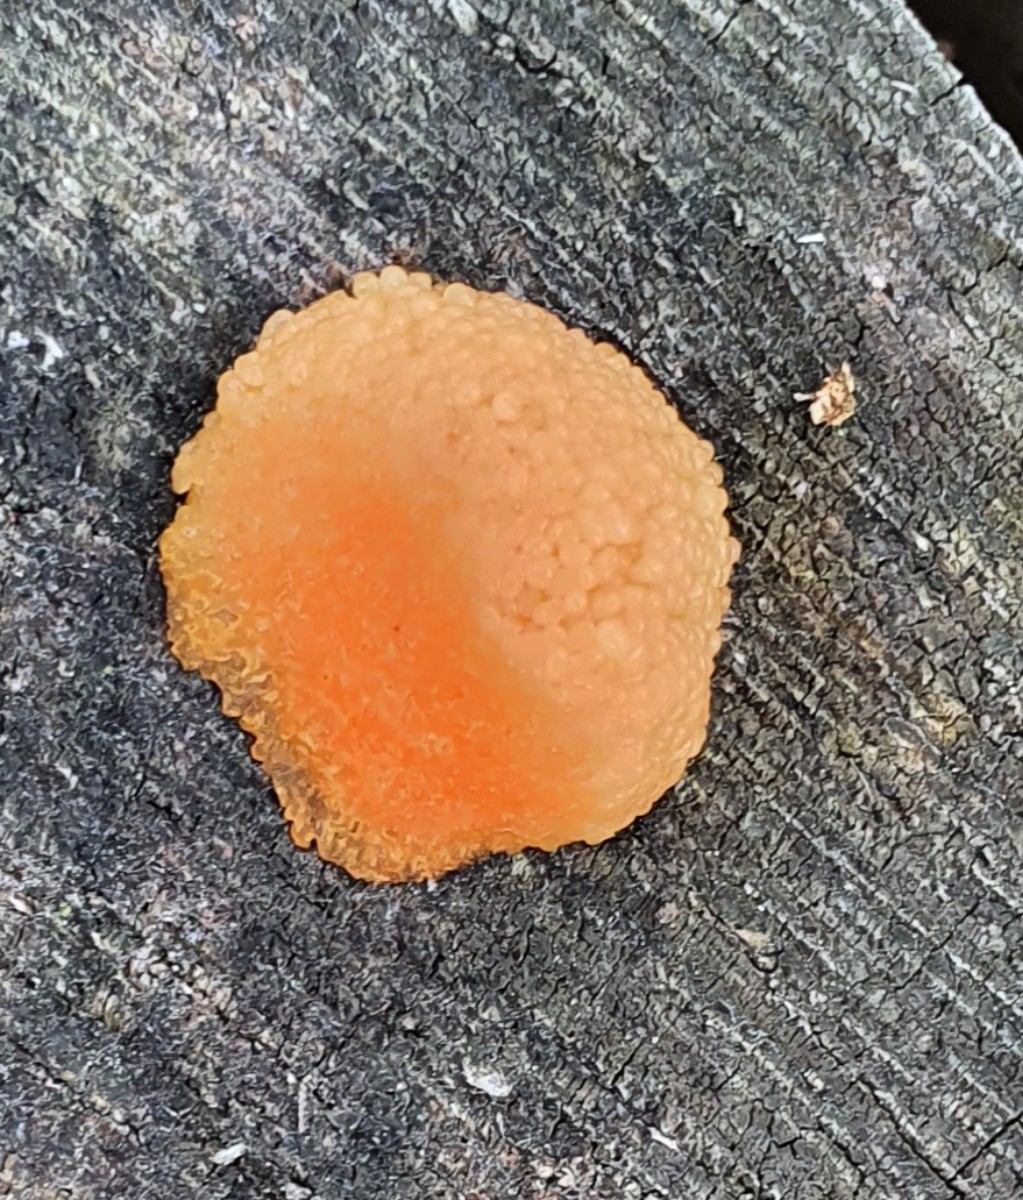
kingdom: Protozoa
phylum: Mycetozoa
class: Myxomycetes
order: Cribrariales
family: Tubiferaceae
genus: Tubifera
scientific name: Tubifera ferruginosa
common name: kanel-støvrør
